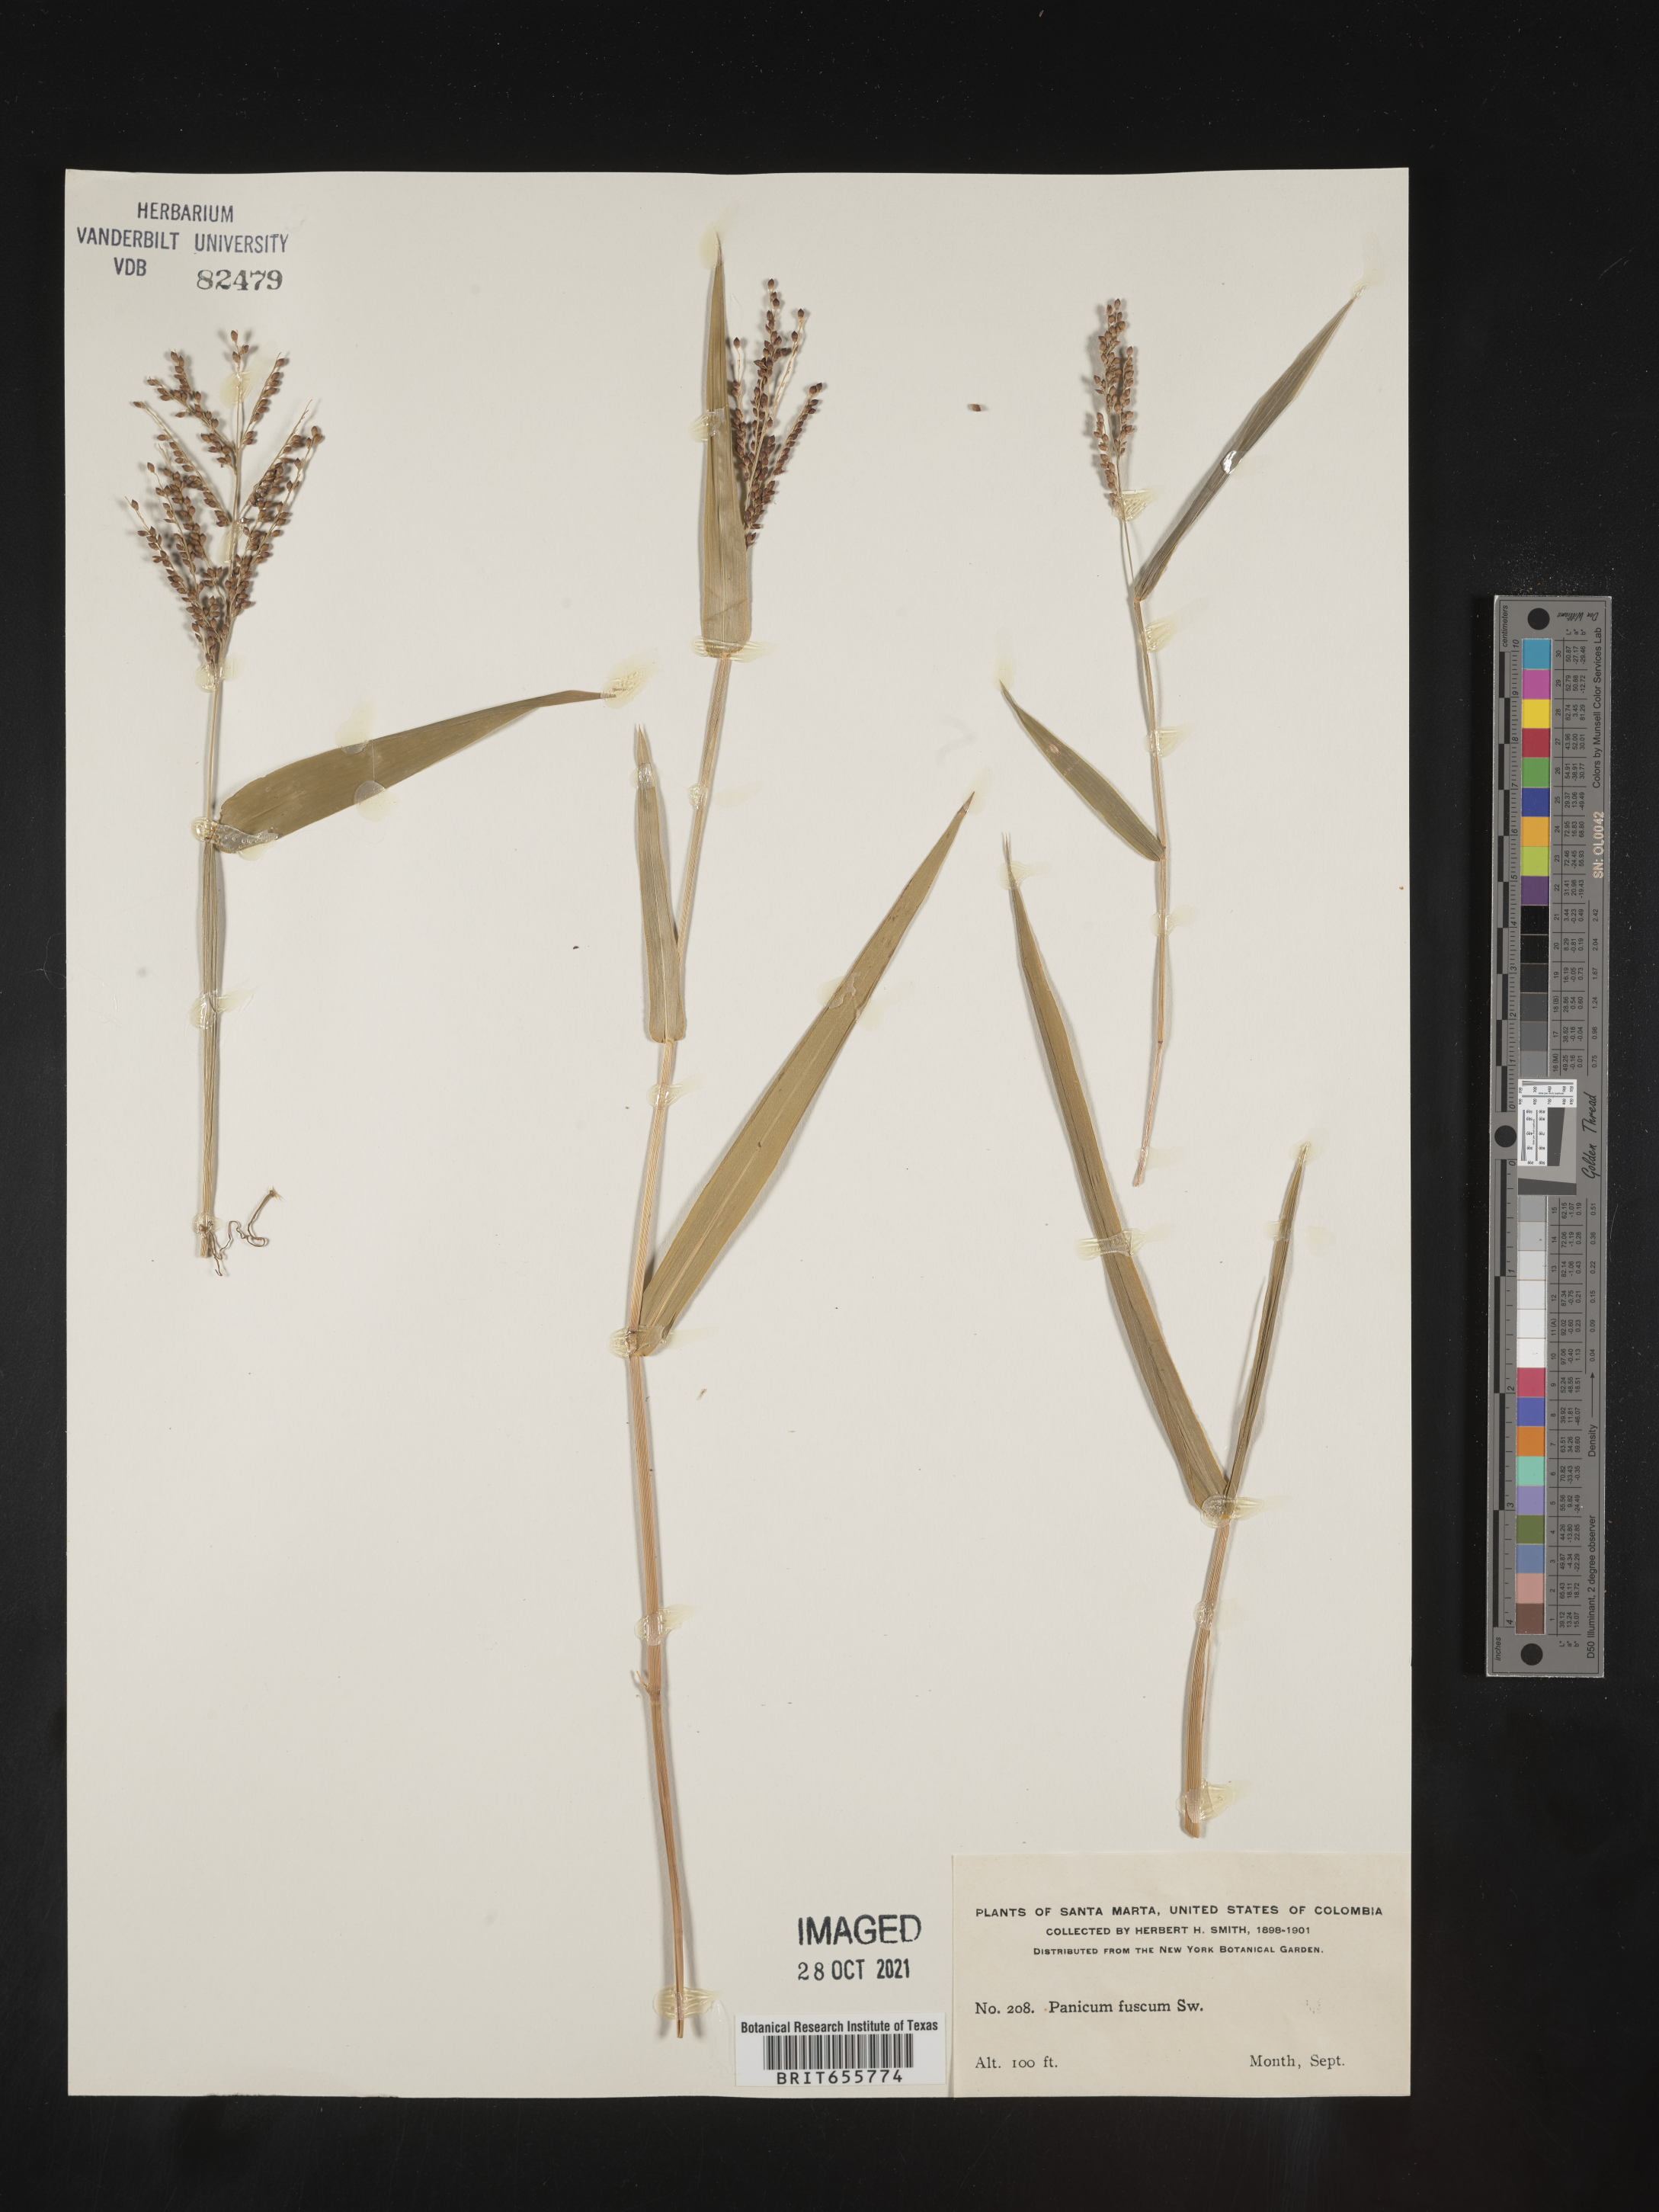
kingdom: Plantae
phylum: Tracheophyta
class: Liliopsida
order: Poales
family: Poaceae
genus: Panicum
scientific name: Panicum
